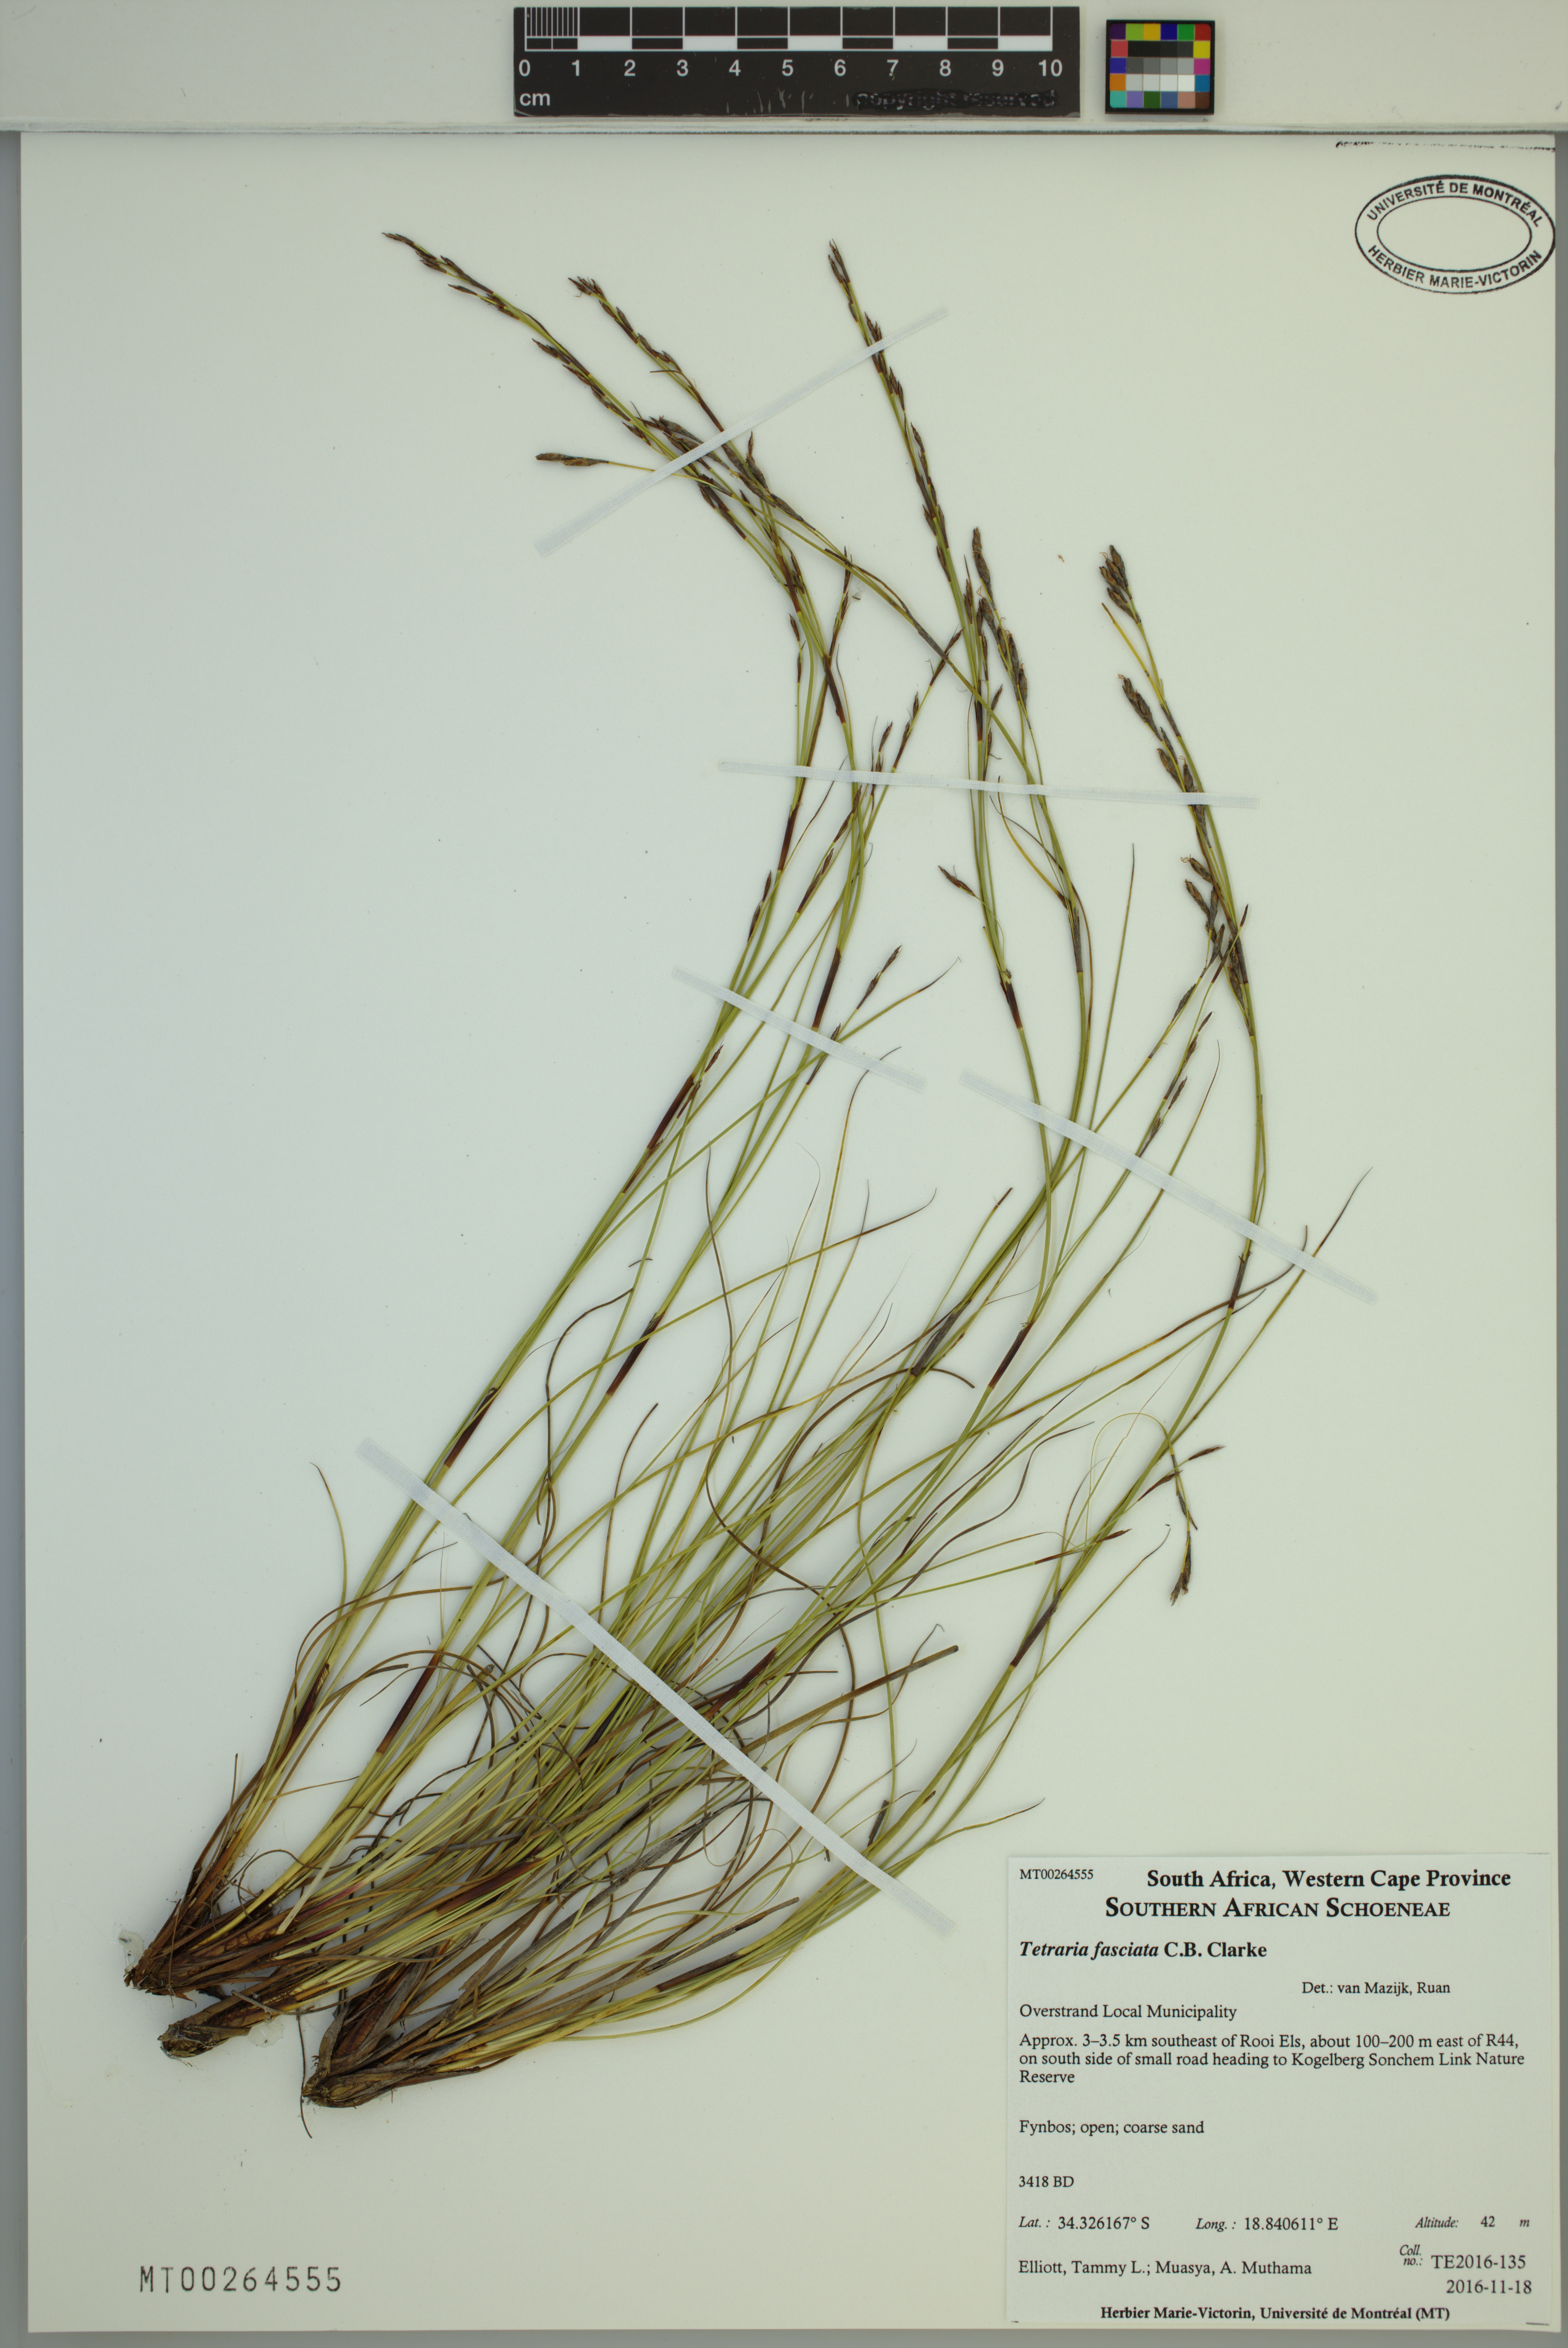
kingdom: Plantae
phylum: Tracheophyta
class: Liliopsida
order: Poales
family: Cyperaceae
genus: Tetraria
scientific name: Tetraria fasciata
